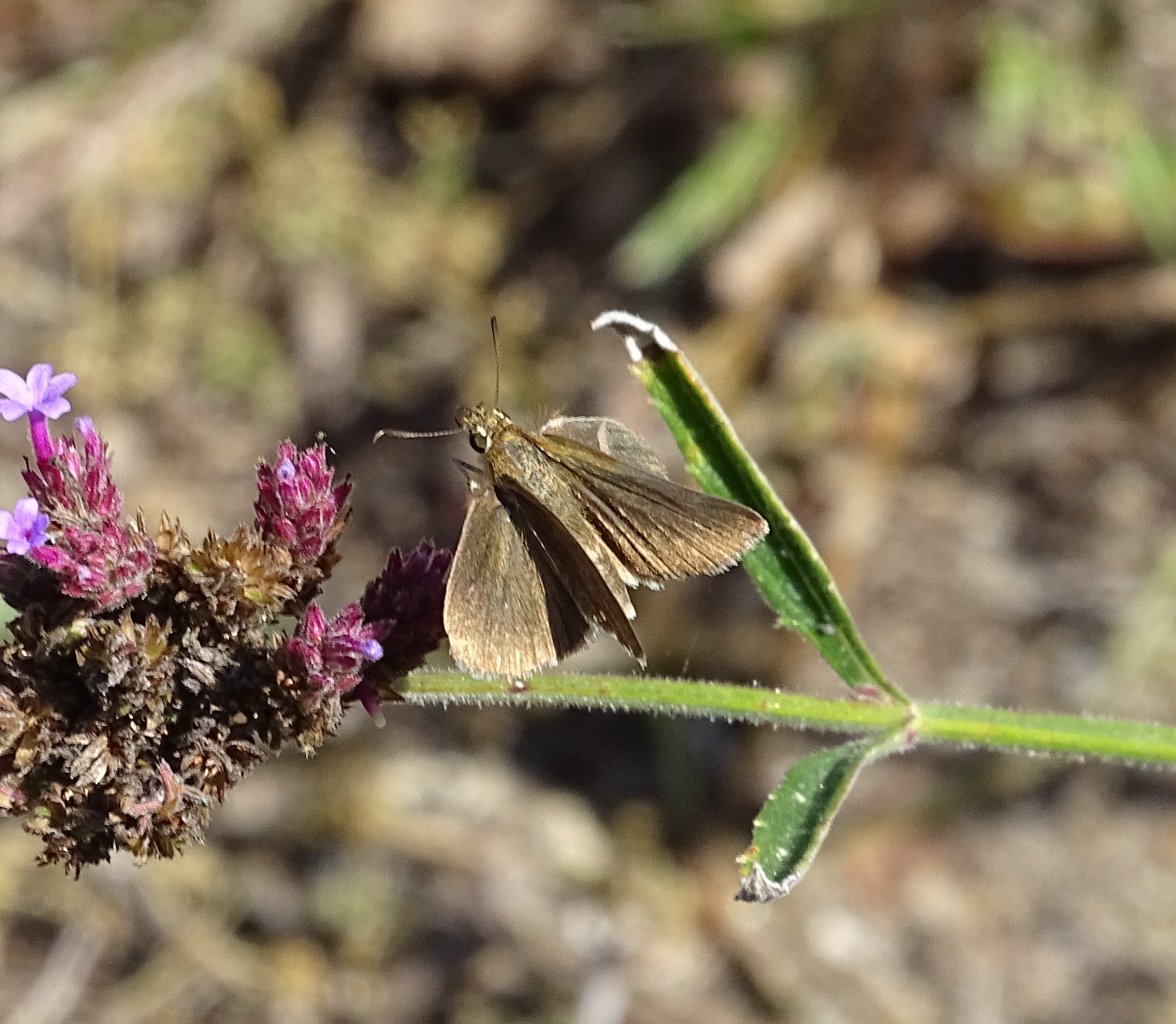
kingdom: Animalia
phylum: Arthropoda
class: Insecta
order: Lepidoptera
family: Hesperiidae
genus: Euphyes
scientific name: Euphyes vestris
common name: Dun Skipper
